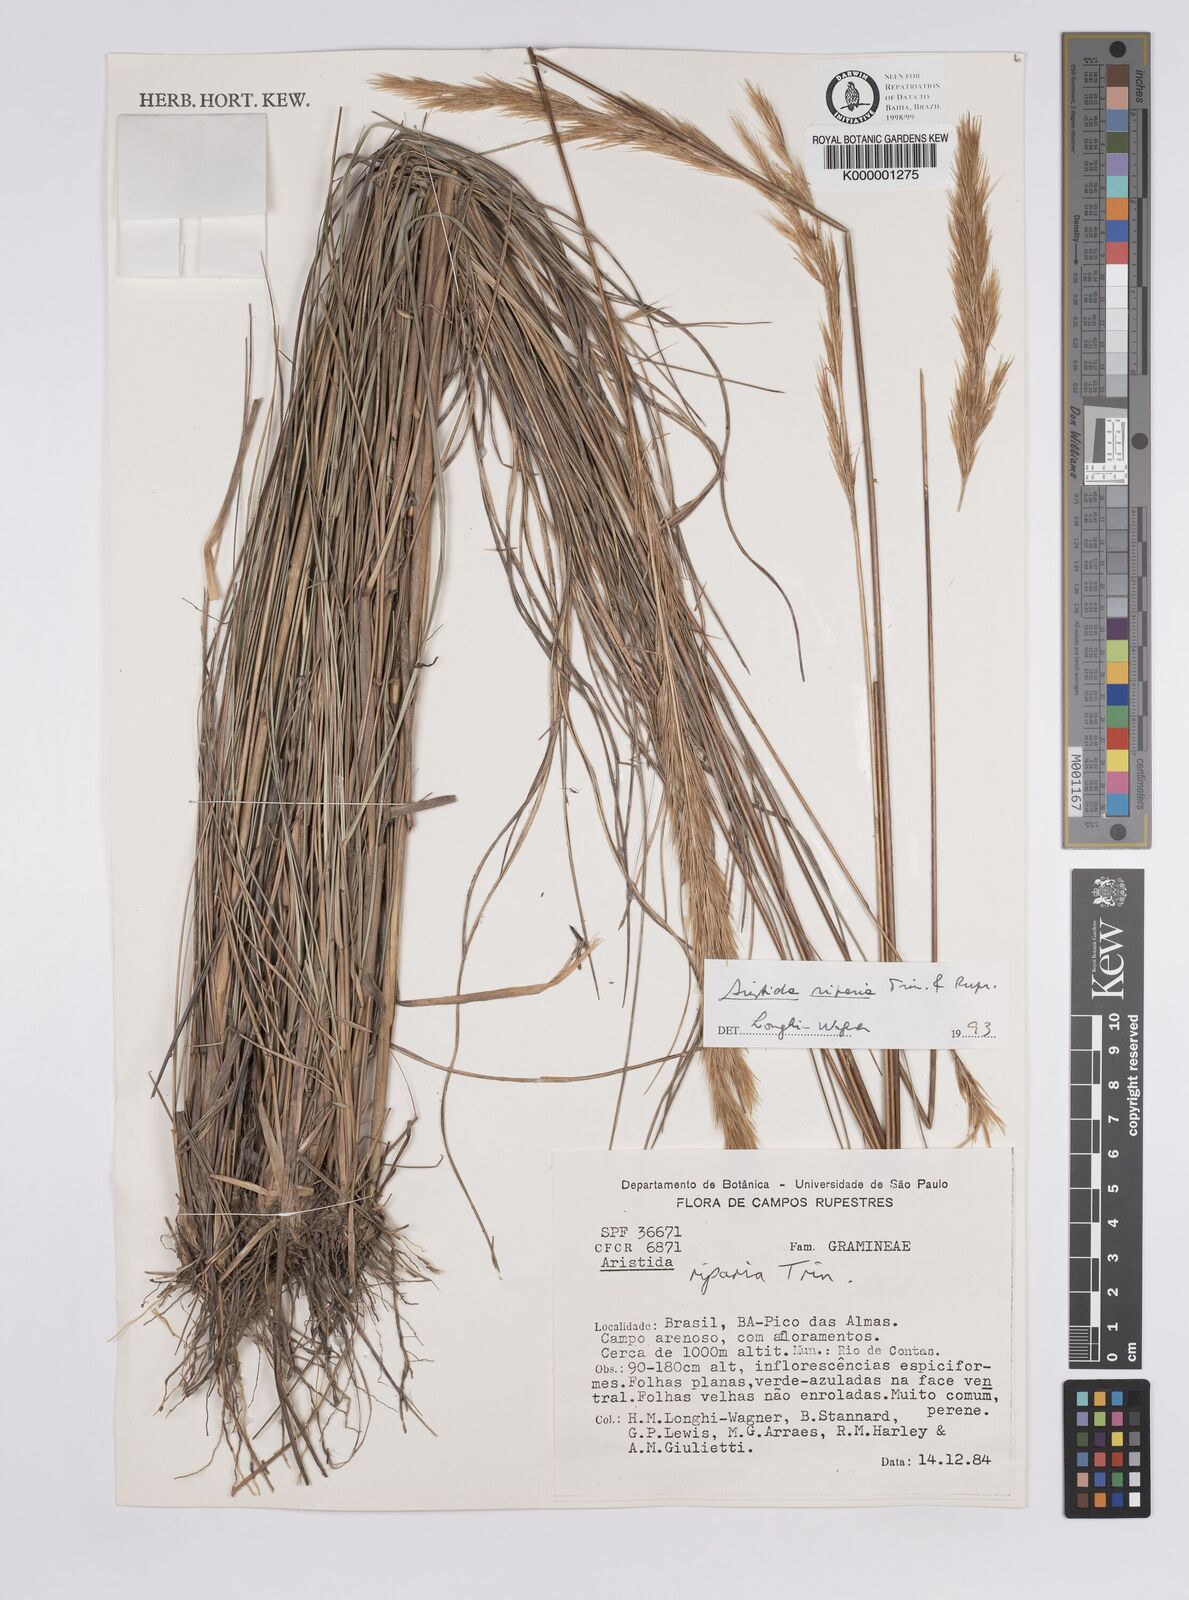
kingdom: Plantae
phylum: Tracheophyta
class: Liliopsida
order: Poales
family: Poaceae
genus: Aristida
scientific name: Aristida riparia
